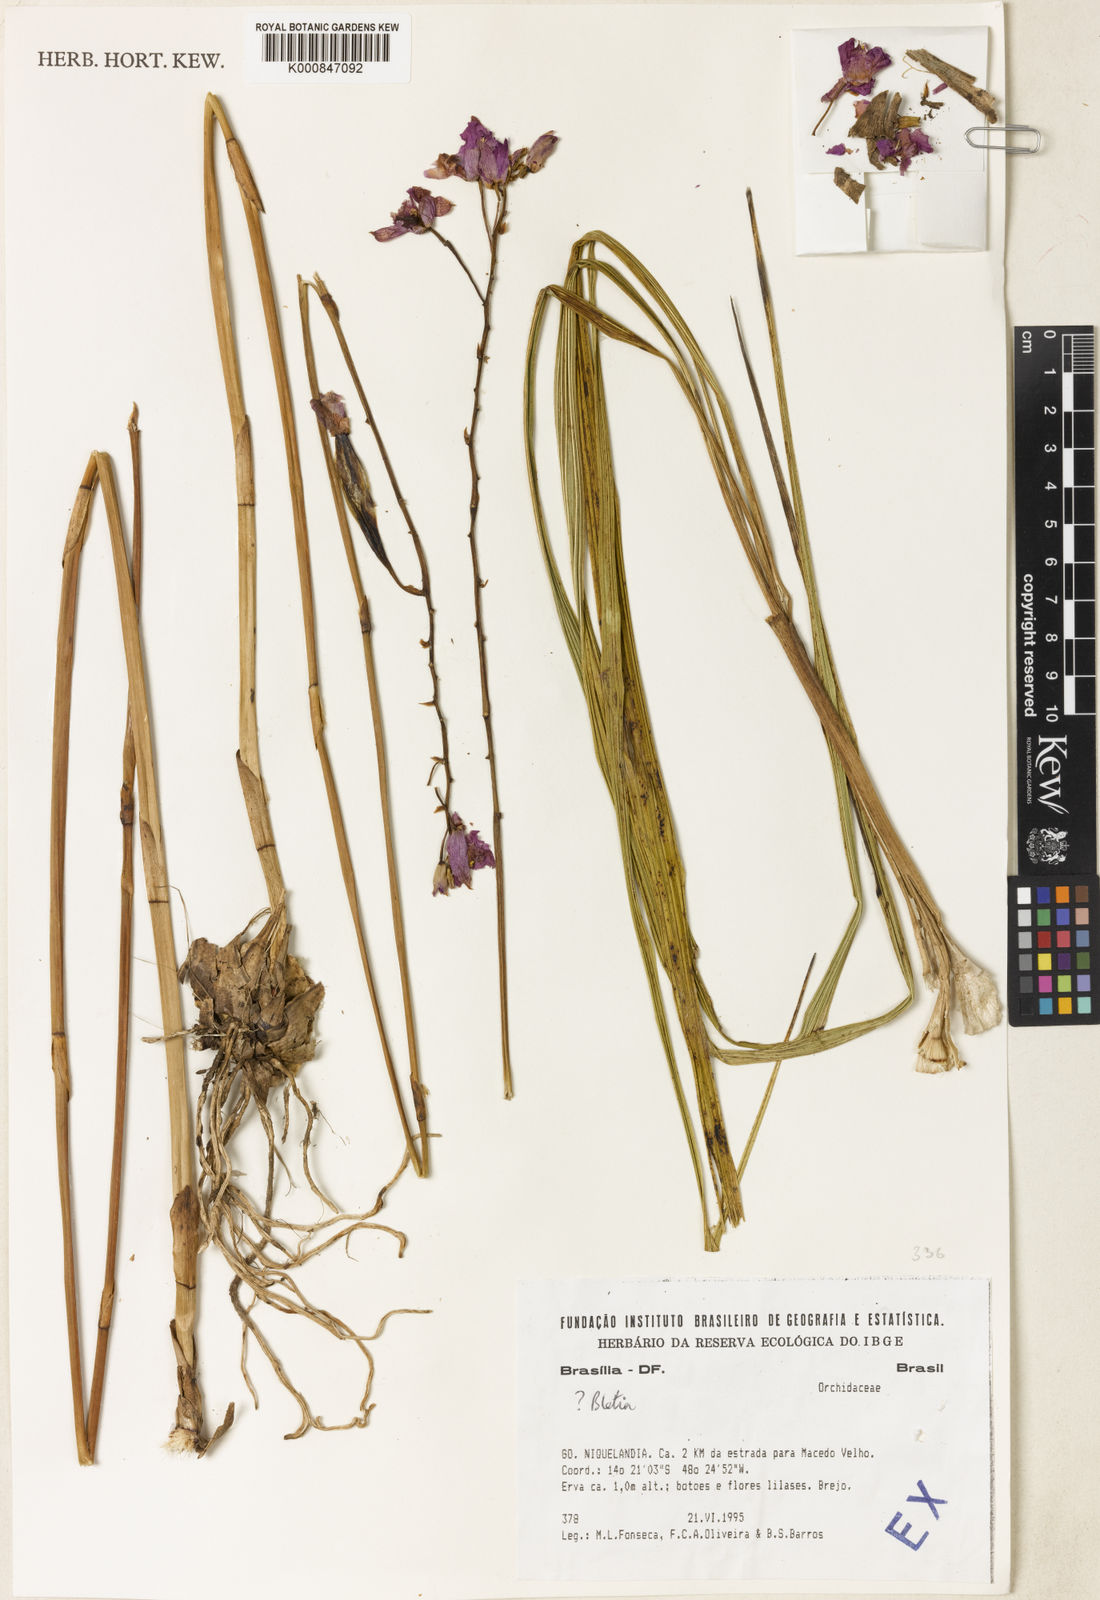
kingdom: Plantae
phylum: Tracheophyta
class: Liliopsida
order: Asparagales
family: Orchidaceae
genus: Bletia
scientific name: Bletia
